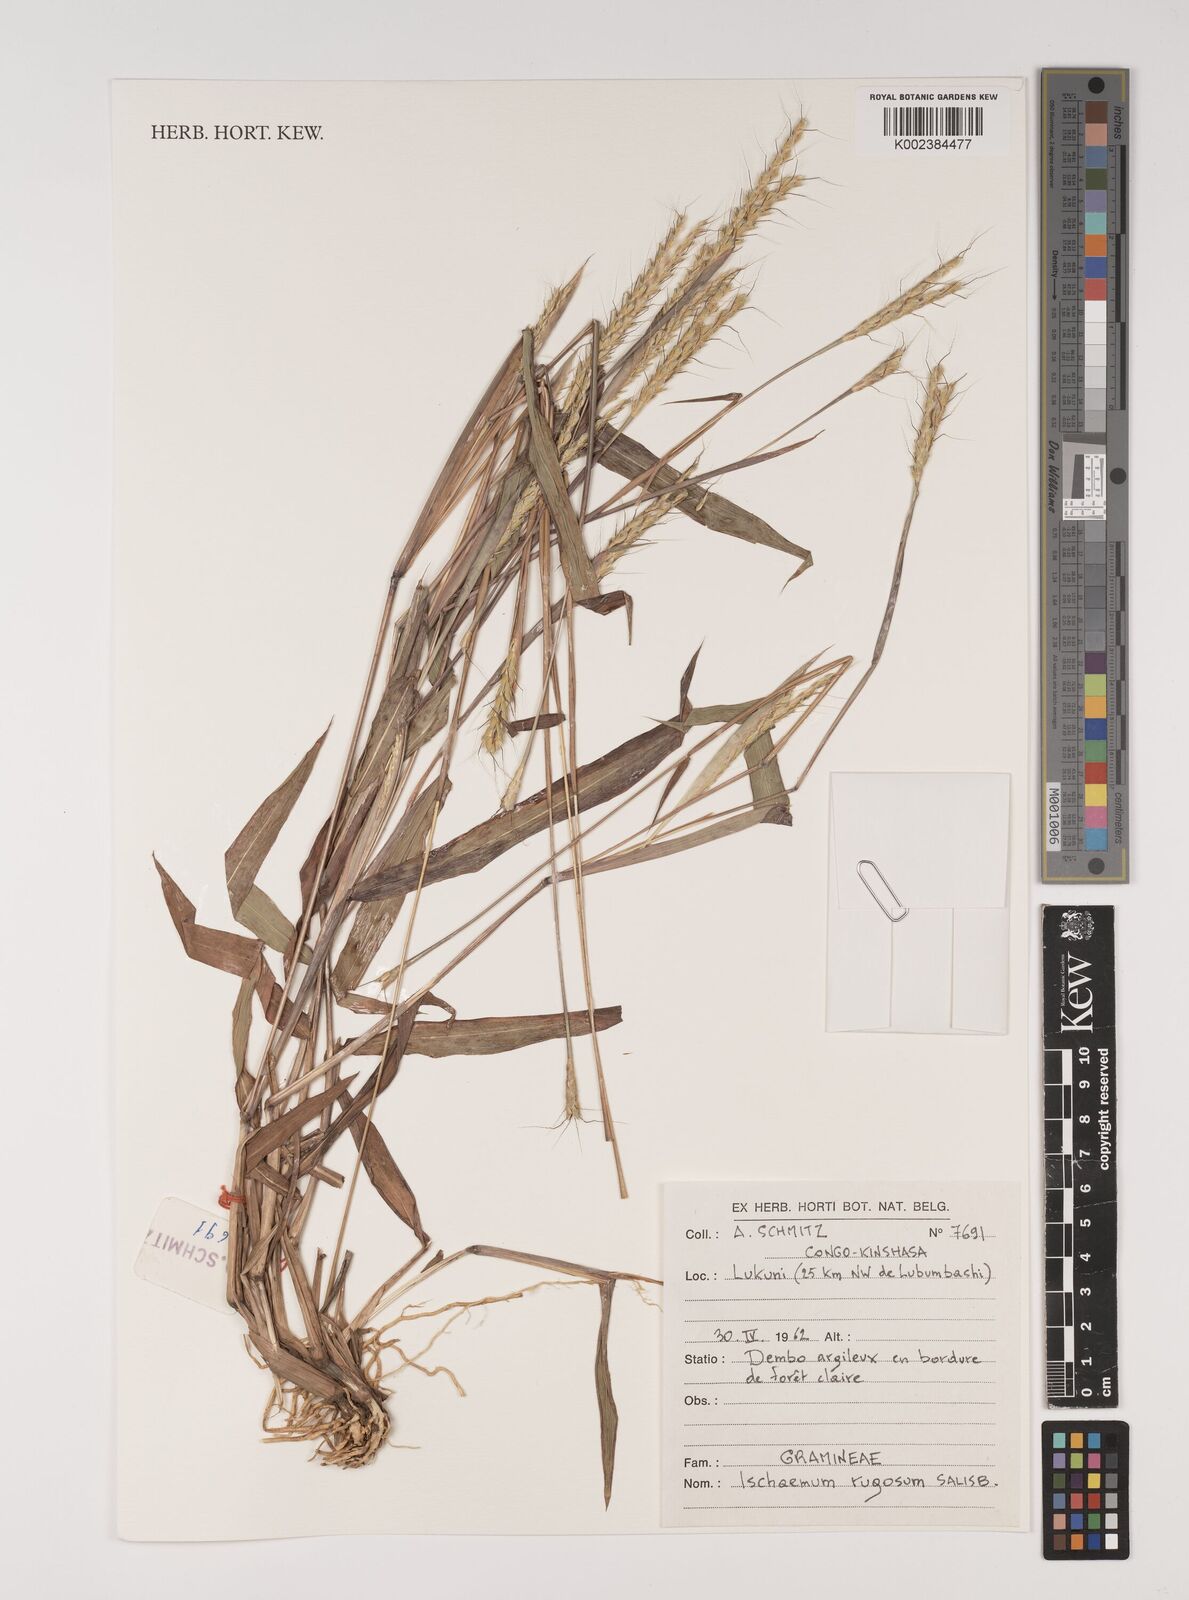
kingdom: Plantae
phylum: Tracheophyta
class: Liliopsida
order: Poales
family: Poaceae
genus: Ischaemum
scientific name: Ischaemum rugosum
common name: Saramatta grass
